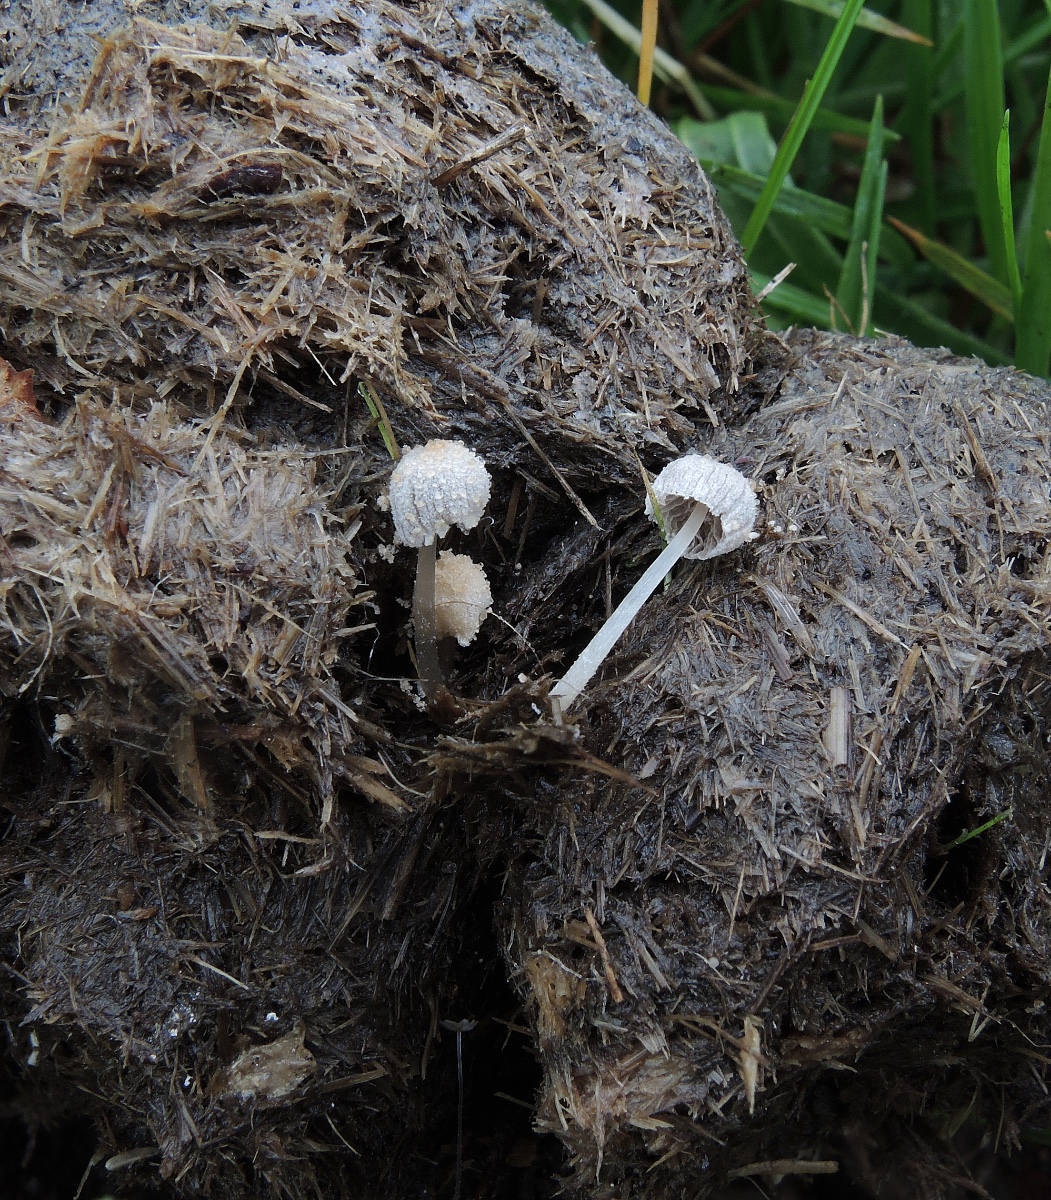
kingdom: Fungi
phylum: Basidiomycota
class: Agaricomycetes
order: Agaricales
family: Psathyrellaceae
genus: Narcissea
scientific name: Narcissea ephemeroides
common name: ring-blækhat
